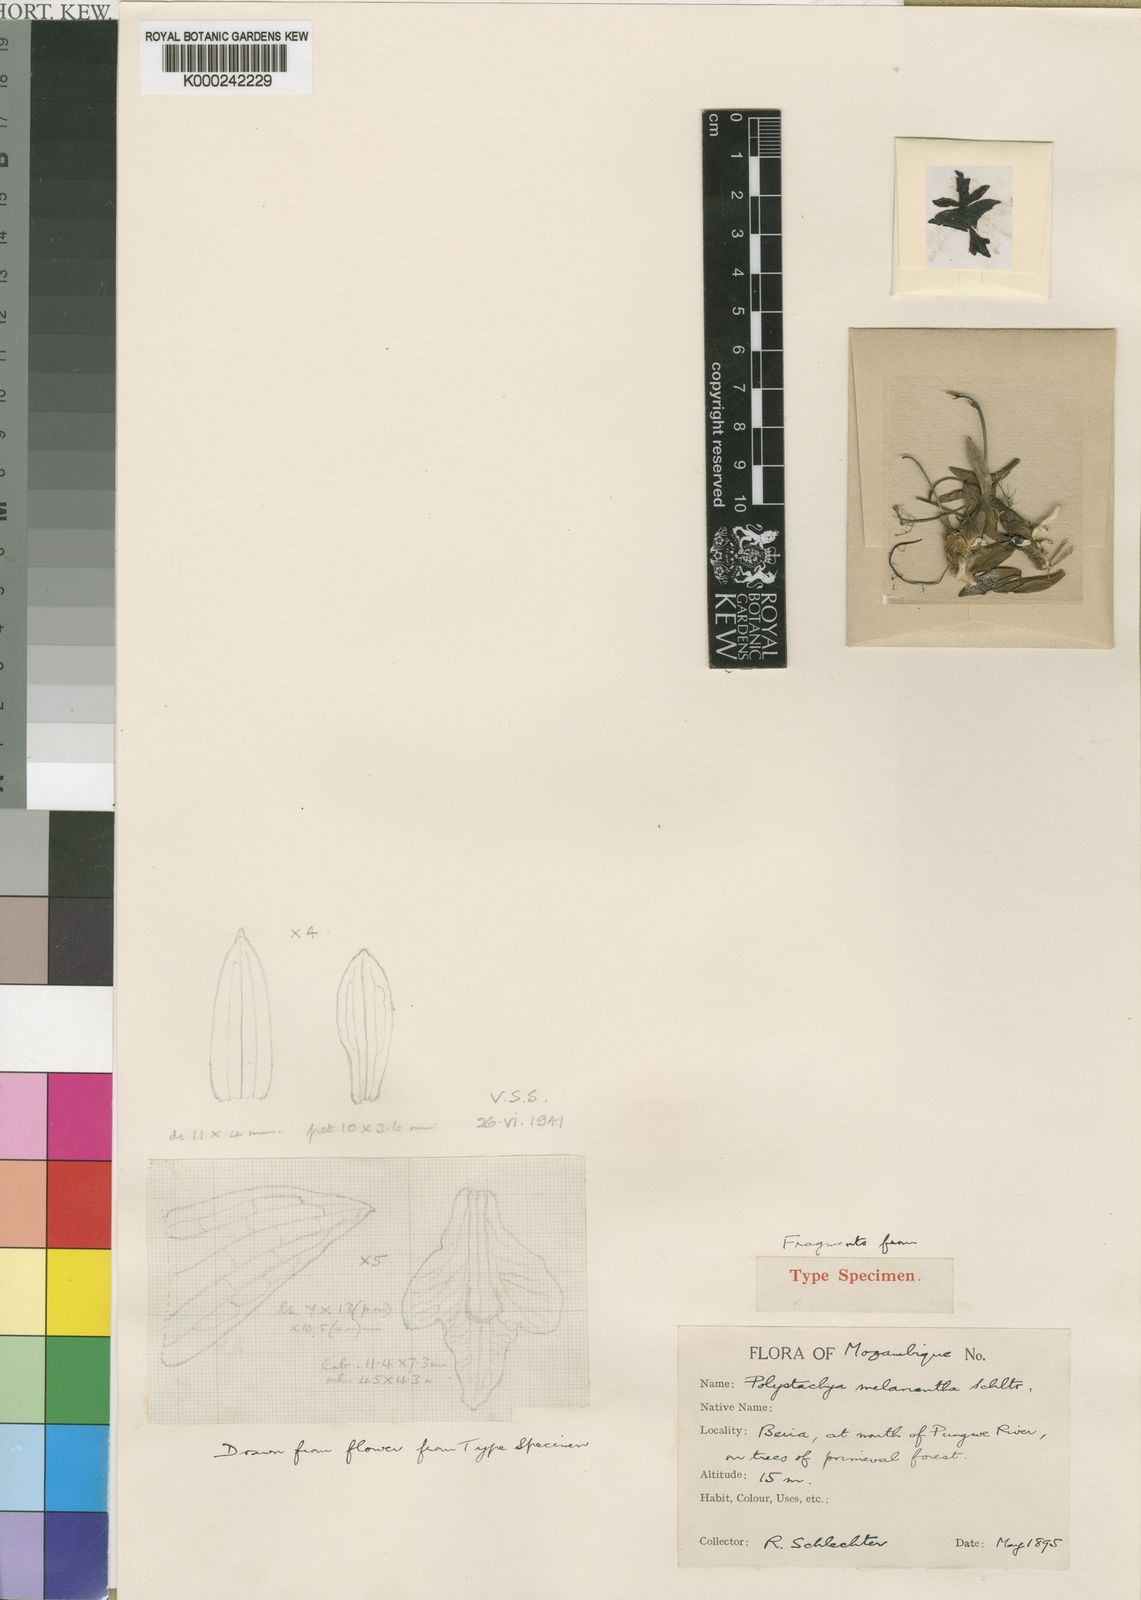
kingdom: Plantae
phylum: Tracheophyta
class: Liliopsida
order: Asparagales
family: Orchidaceae
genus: Polystachya
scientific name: Polystachya melanantha
